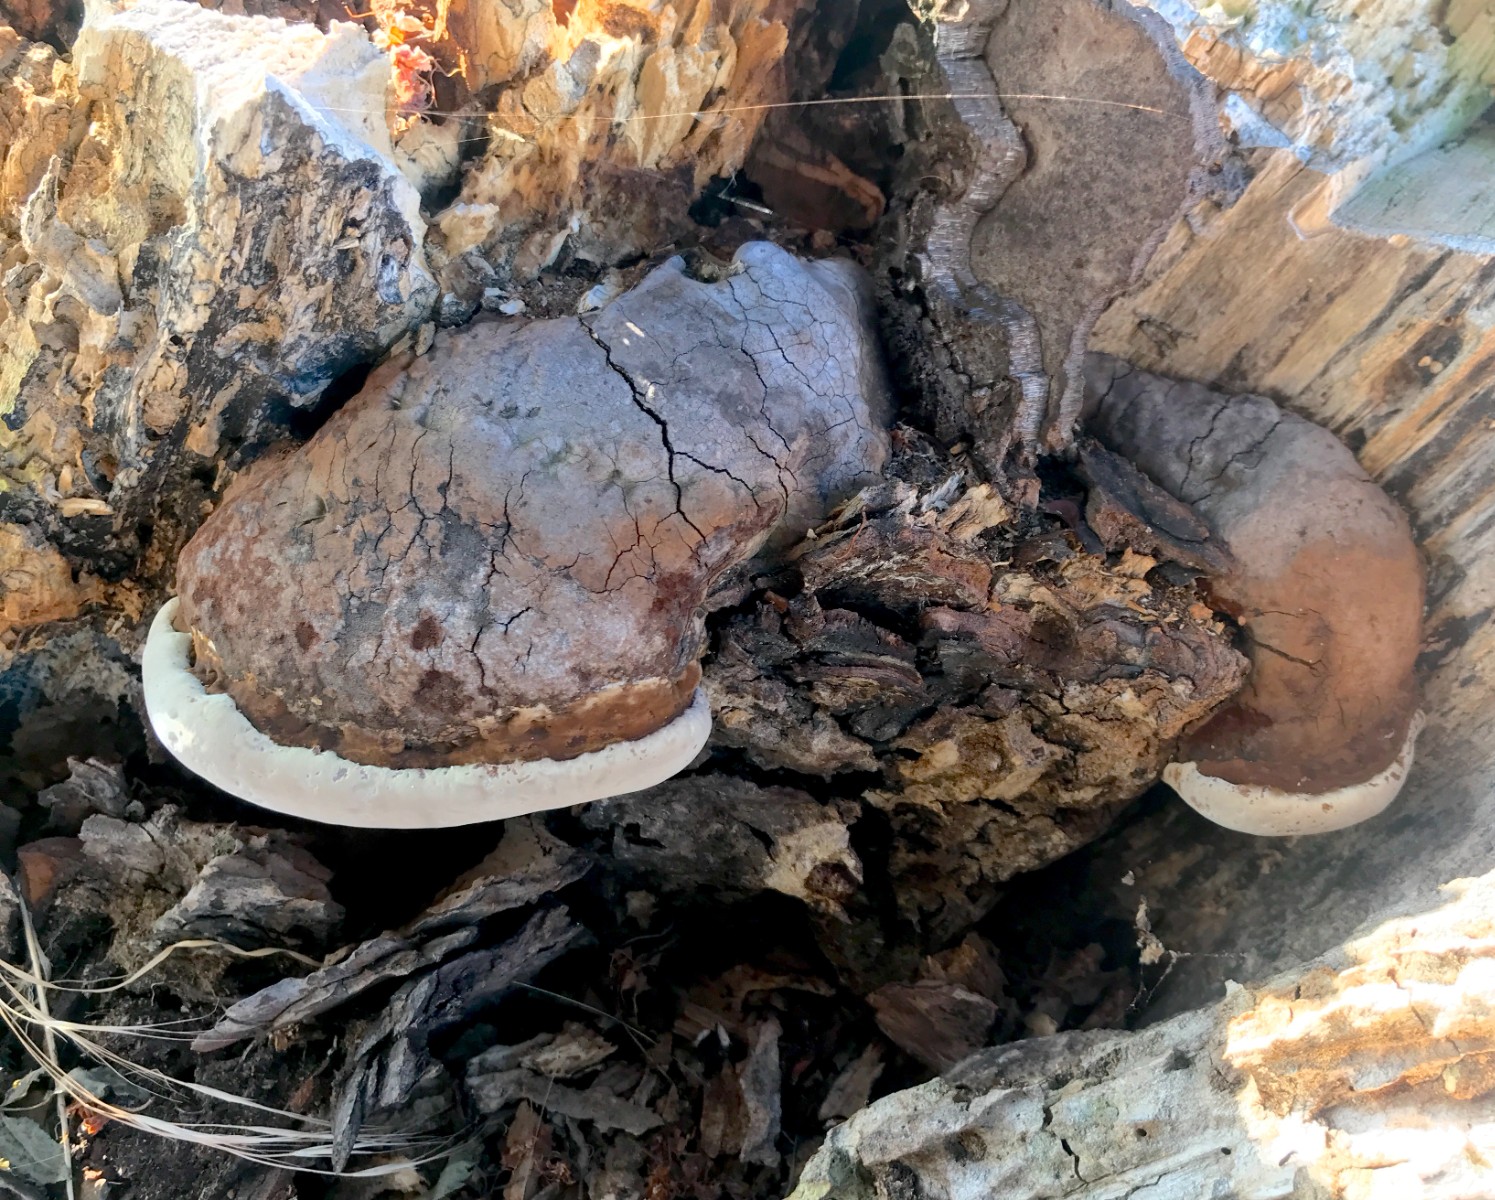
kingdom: Fungi
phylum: Basidiomycota
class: Agaricomycetes
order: Polyporales
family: Polyporaceae
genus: Ganoderma
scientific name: Ganoderma adspersum
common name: grov lakporesvamp
